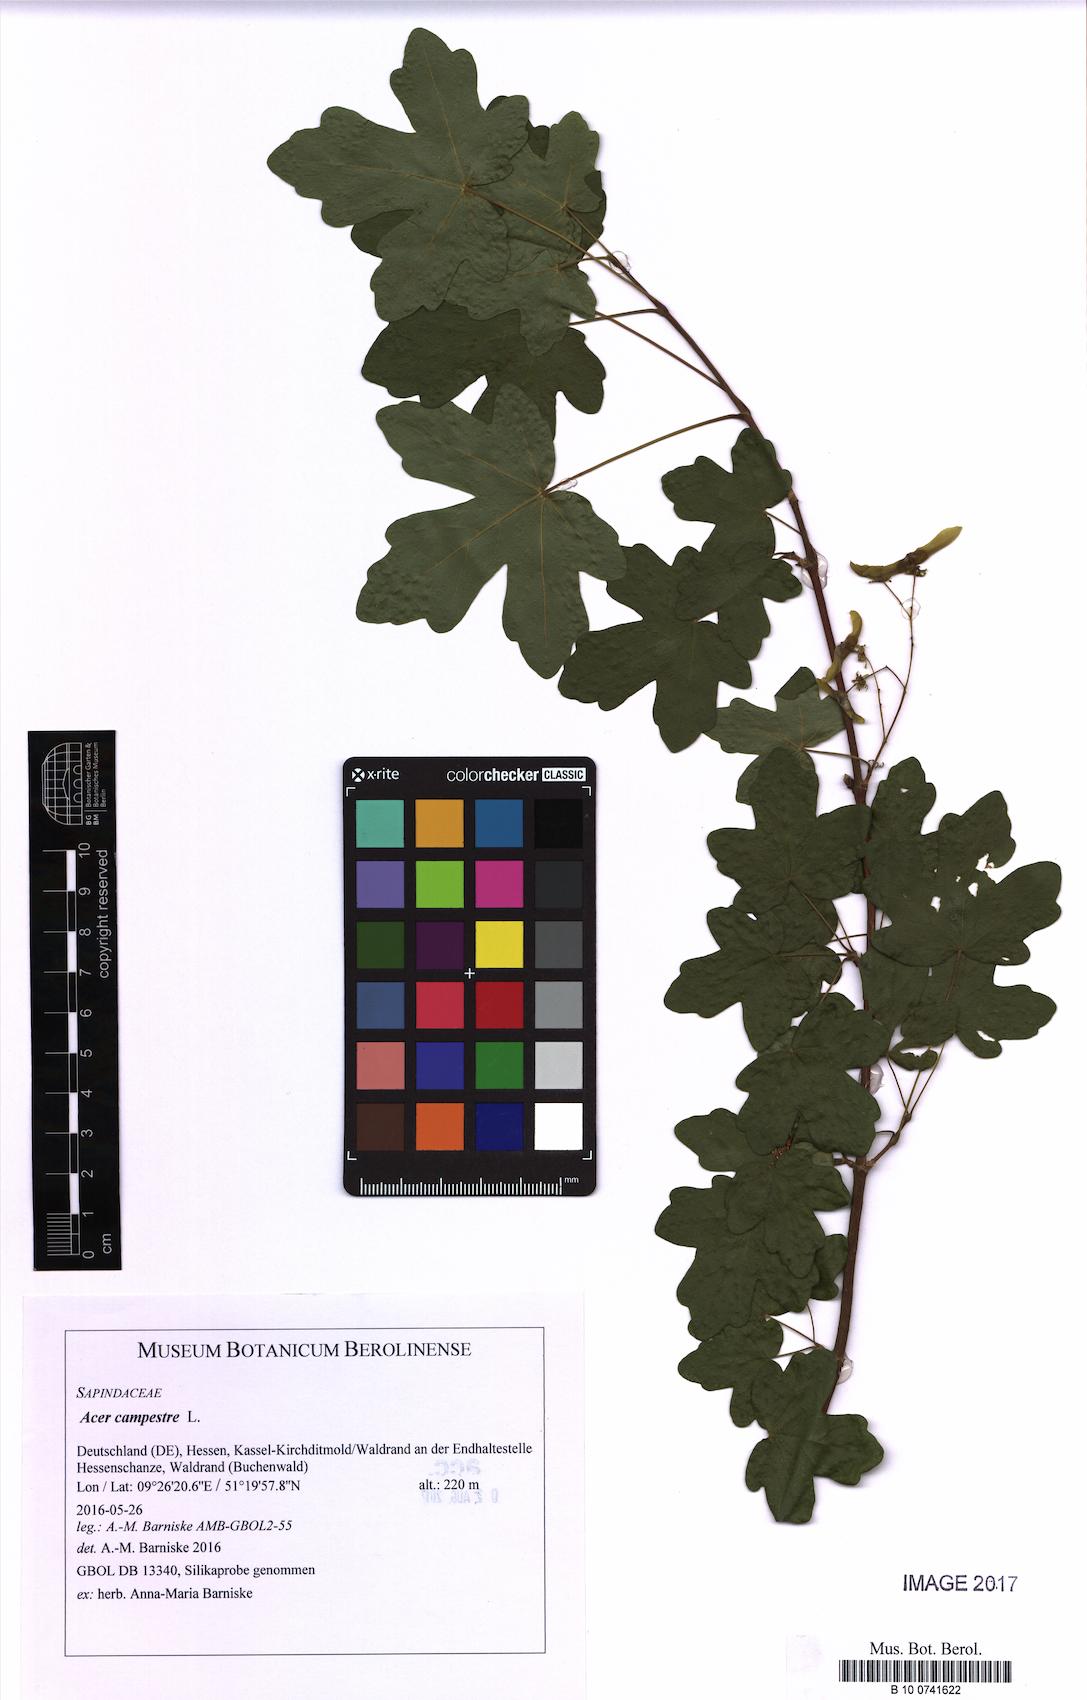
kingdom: Plantae
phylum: Tracheophyta
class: Magnoliopsida
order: Sapindales
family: Sapindaceae
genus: Acer
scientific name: Acer campestre
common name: Field maple
